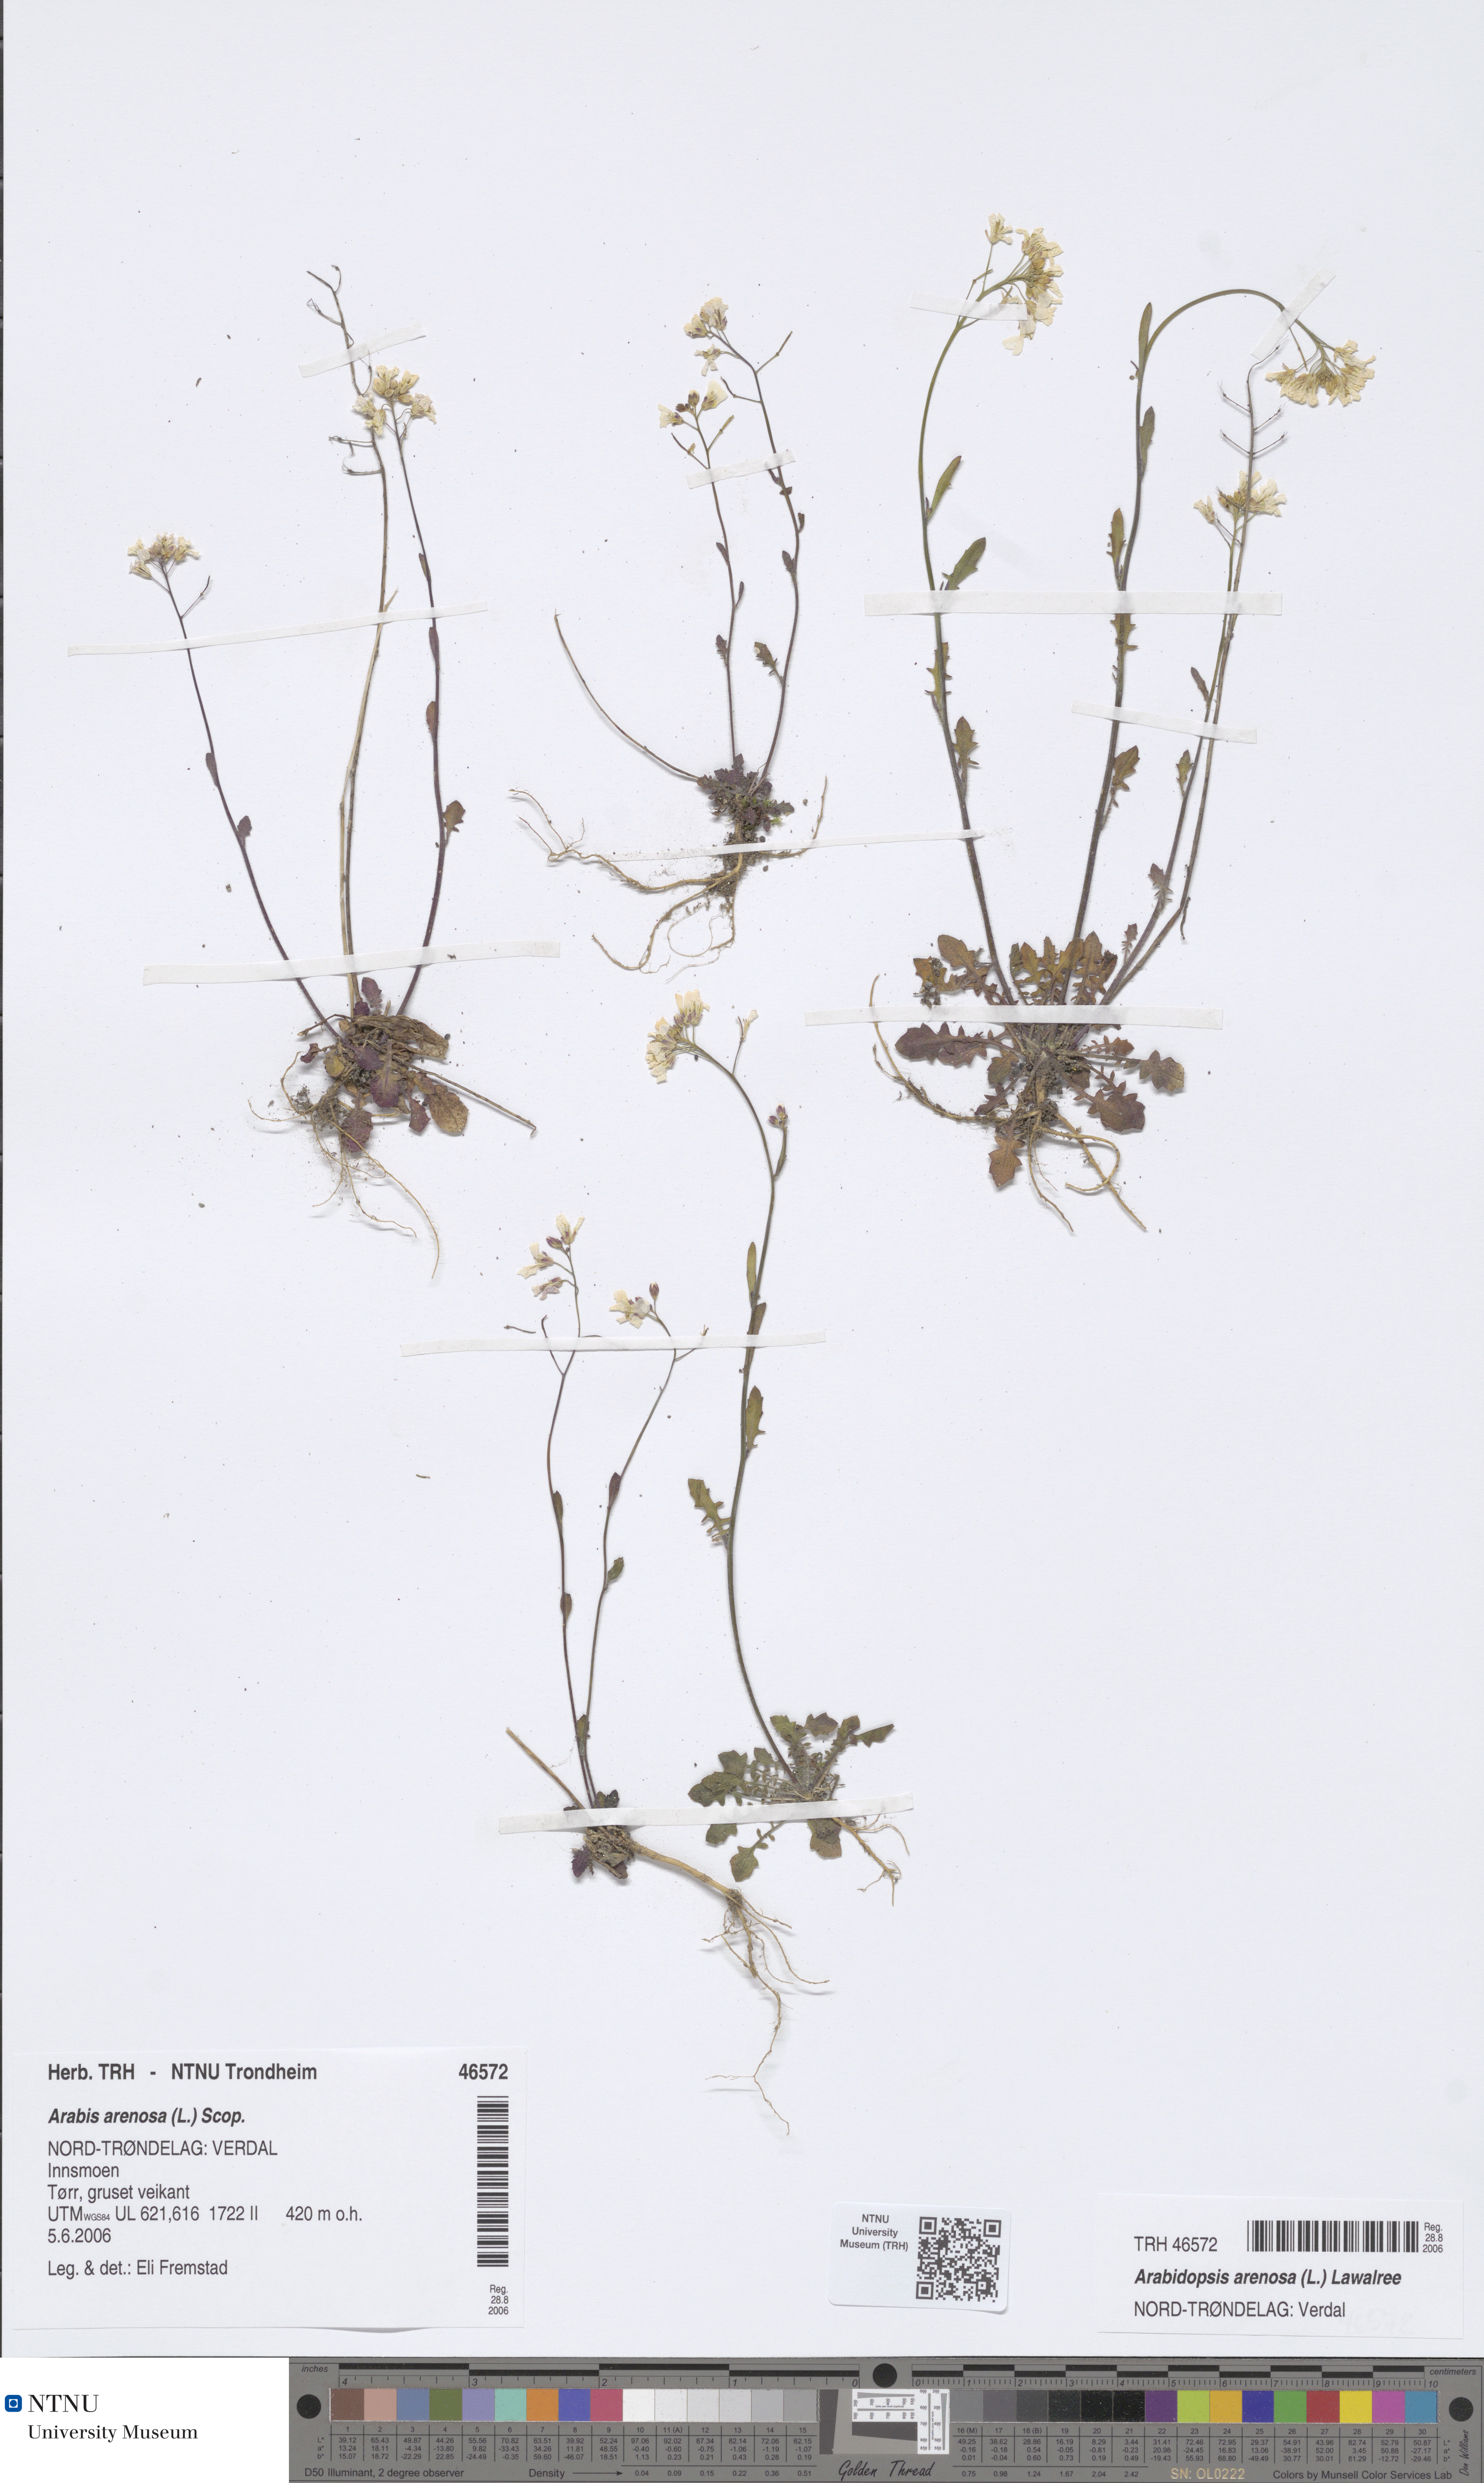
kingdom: Plantae
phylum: Tracheophyta
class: Magnoliopsida
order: Brassicales
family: Brassicaceae
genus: Arabidopsis
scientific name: Arabidopsis arenosa
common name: Sand rock-cress
